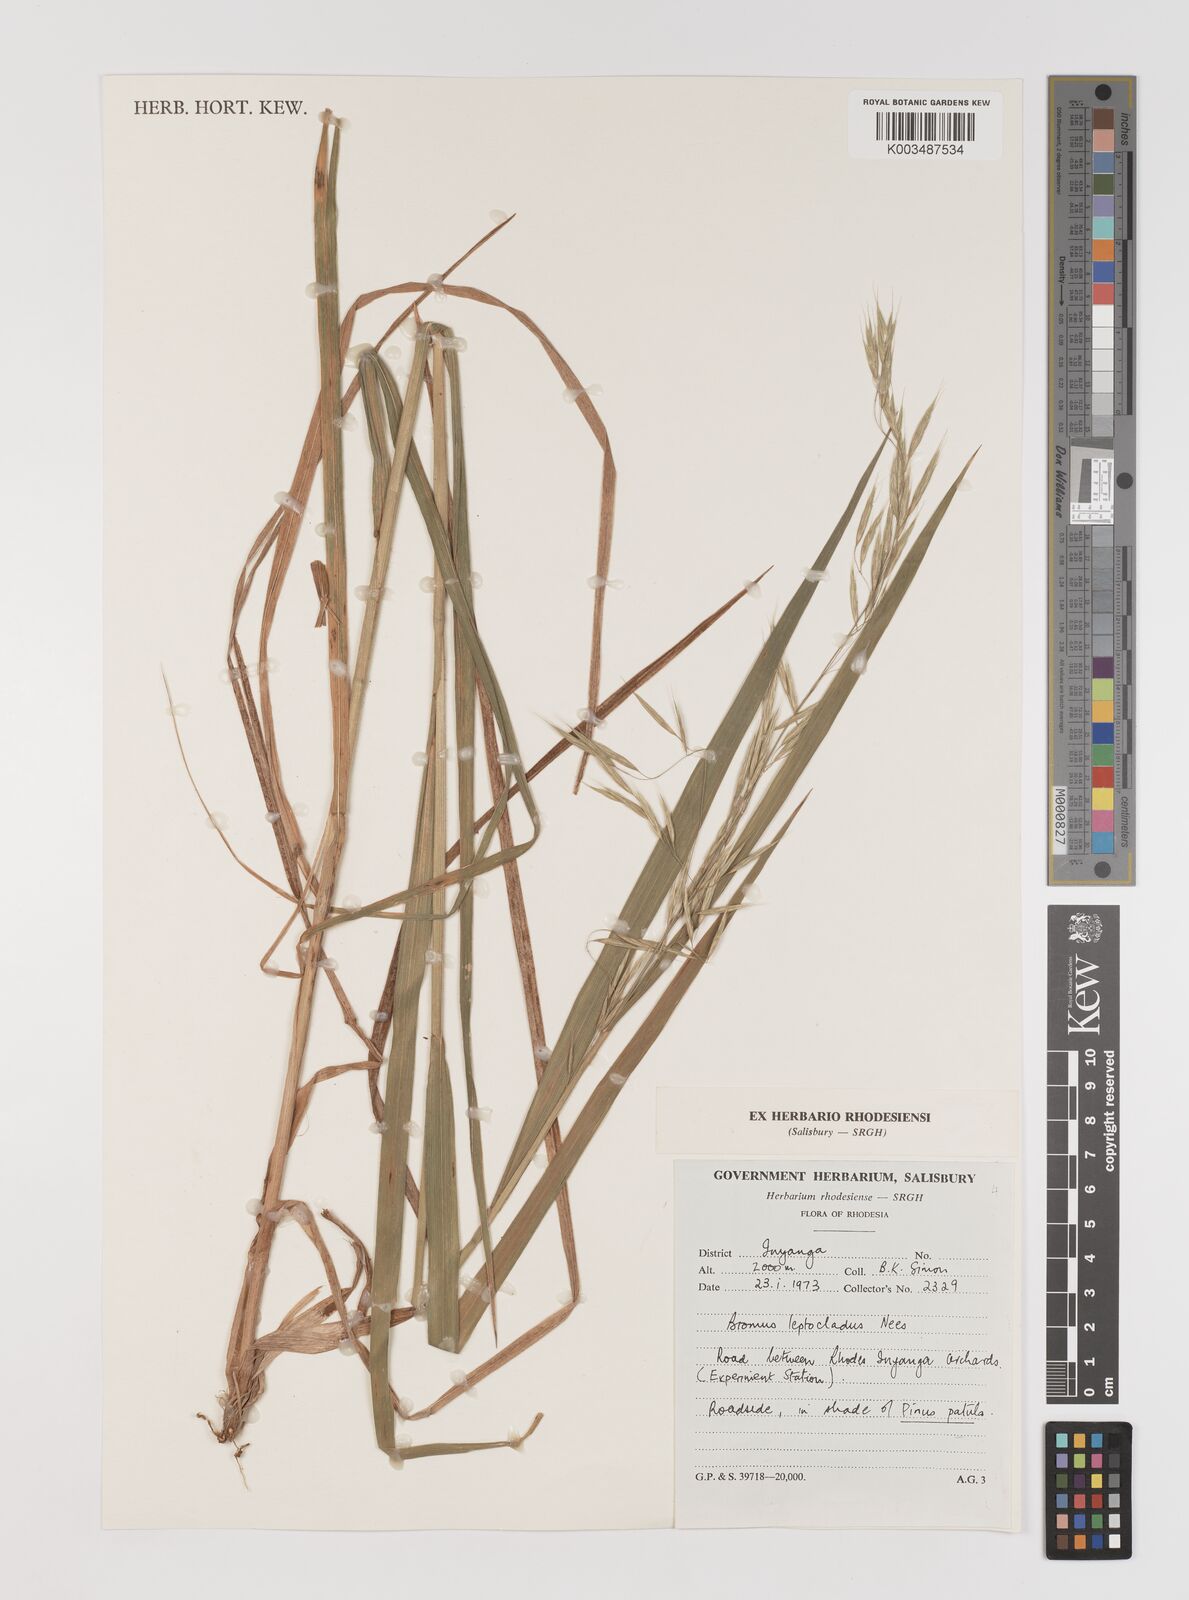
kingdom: Plantae
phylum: Tracheophyta
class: Liliopsida
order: Poales
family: Poaceae
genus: Bromus
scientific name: Bromus leptoclados
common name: Mountain bromegrass
